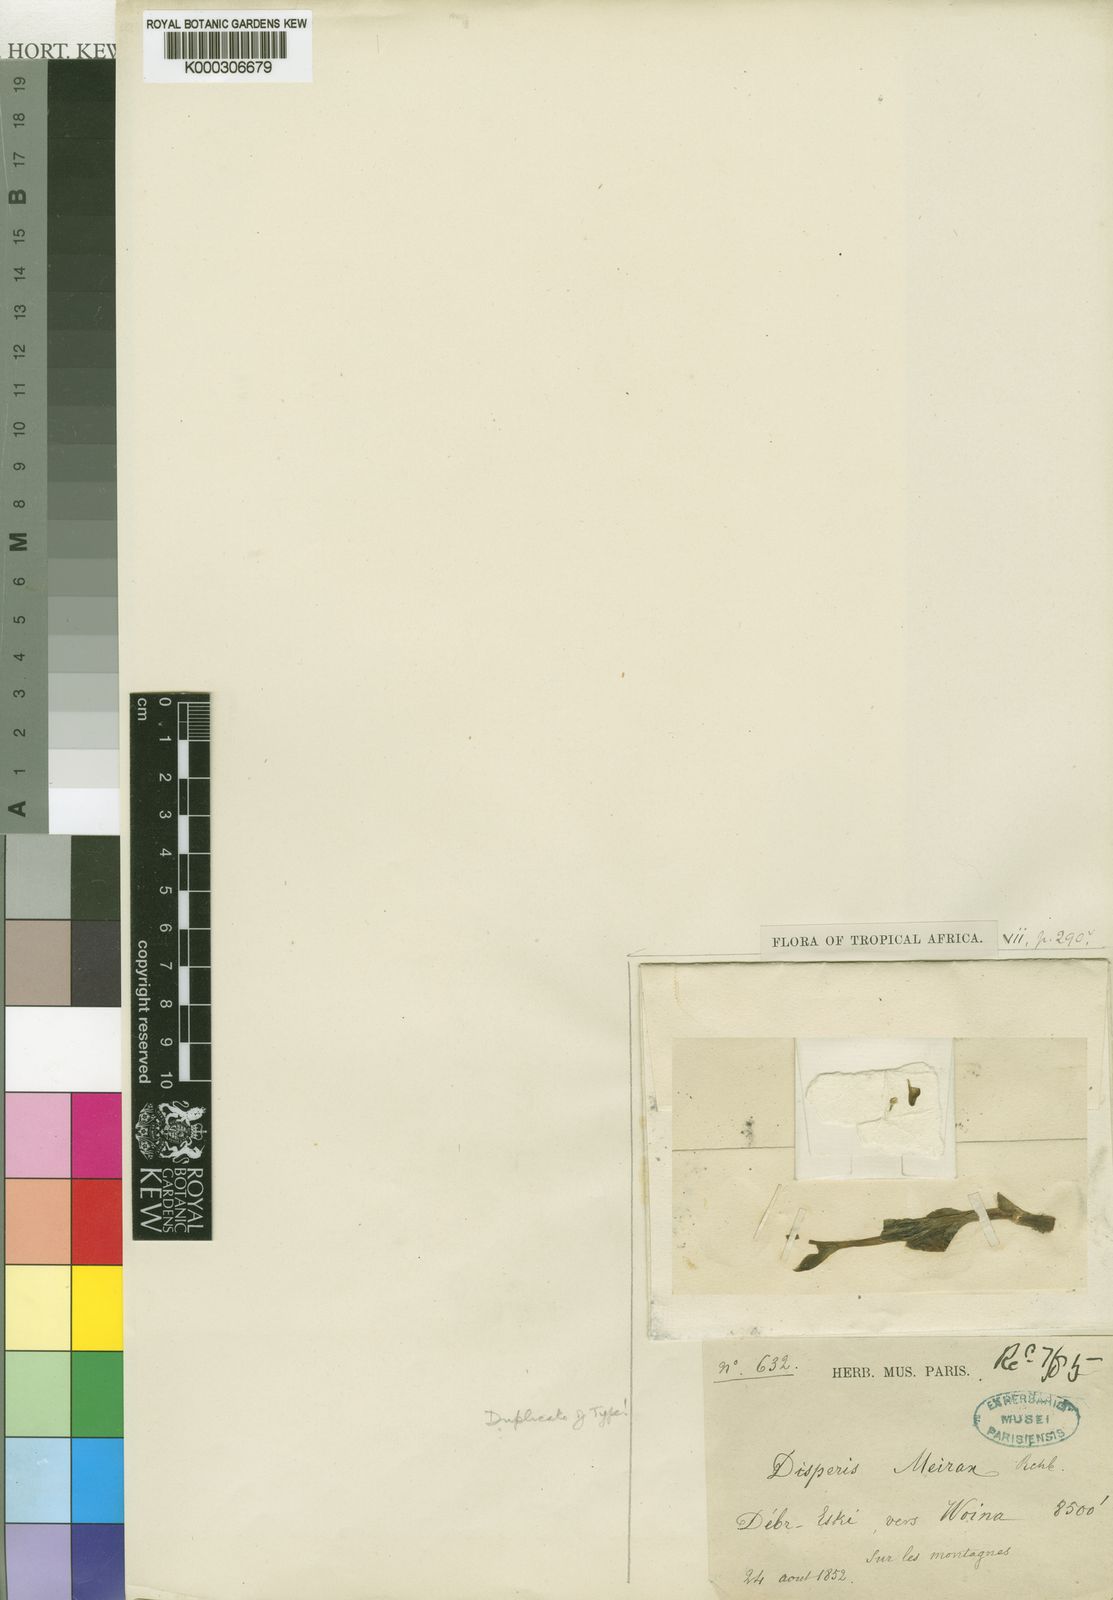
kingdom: Plantae
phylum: Tracheophyta
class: Liliopsida
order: Asparagales
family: Orchidaceae
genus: Disperis
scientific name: Disperis meirax
